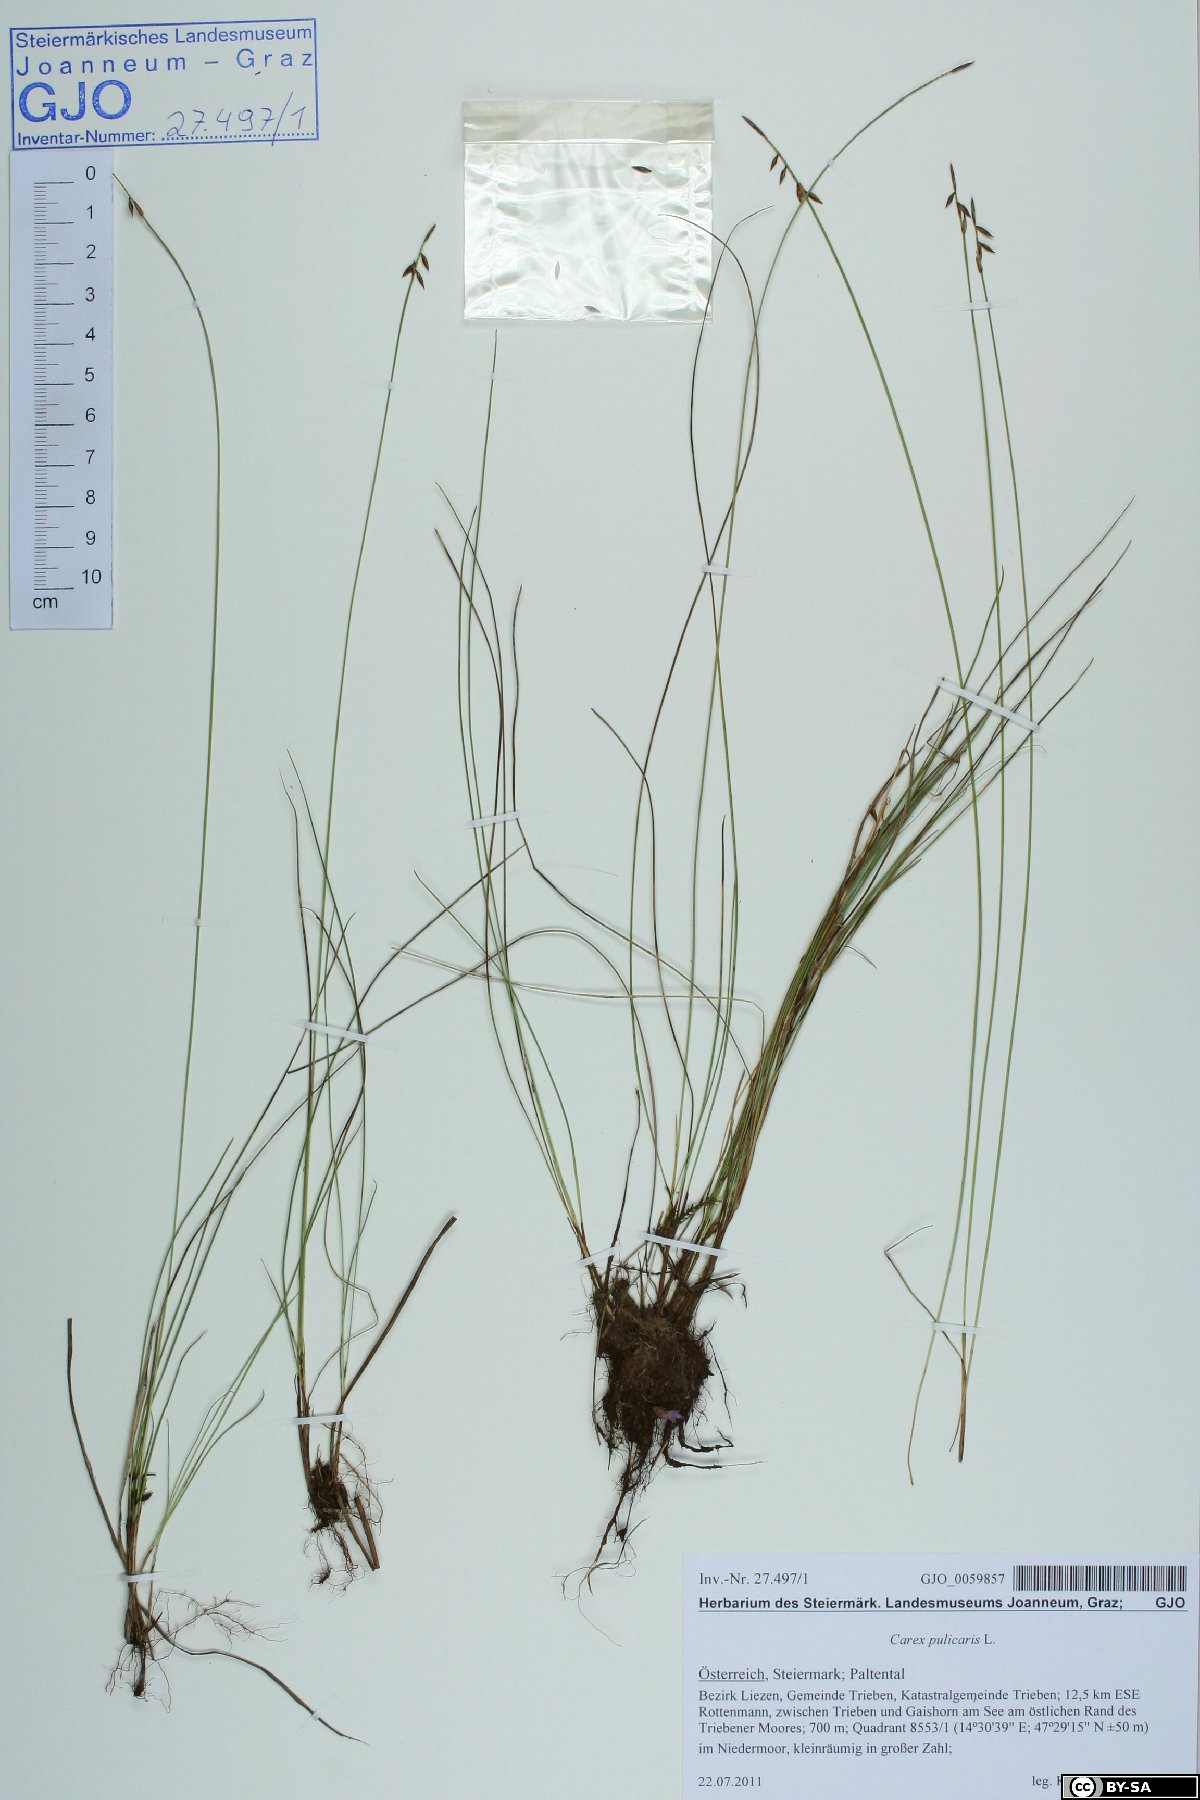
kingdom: Plantae
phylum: Tracheophyta
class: Liliopsida
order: Poales
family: Cyperaceae
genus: Carex
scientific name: Carex pulicaris
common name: Flea sedge
